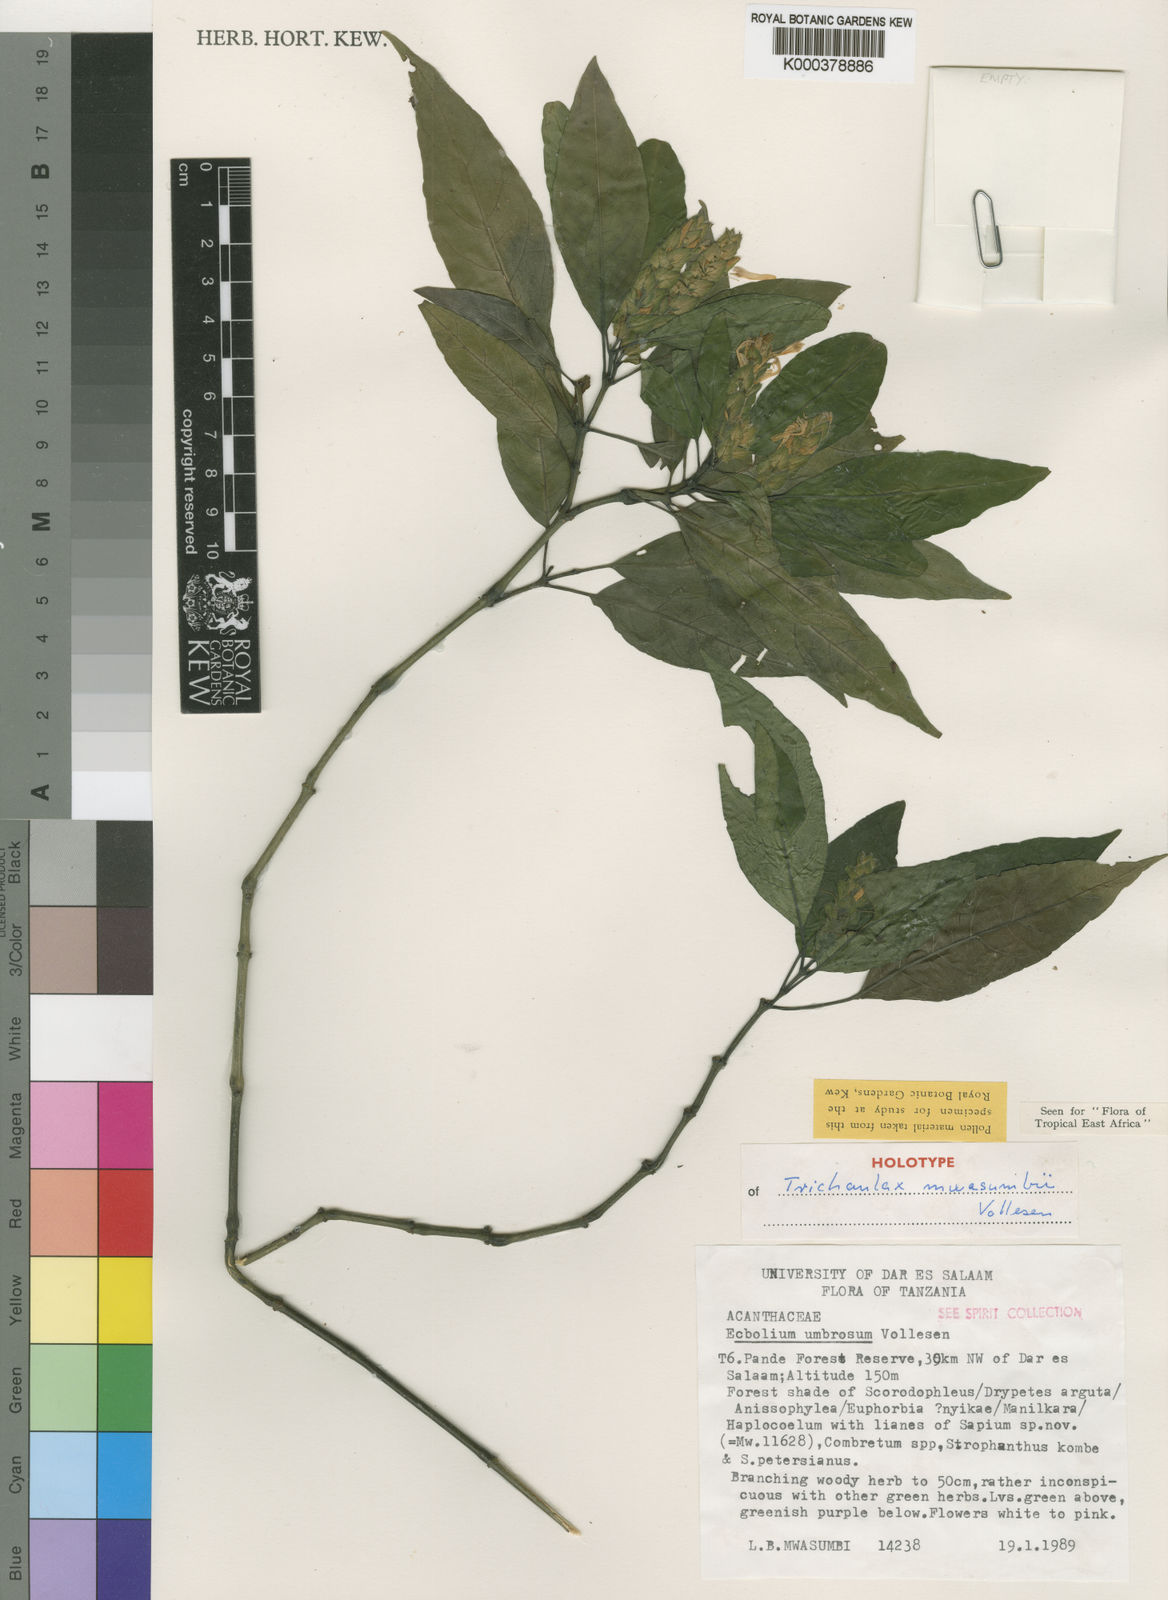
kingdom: Plantae
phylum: Tracheophyta
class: Magnoliopsida
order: Lamiales
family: Acanthaceae
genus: Ecbolium
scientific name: Ecbolium
